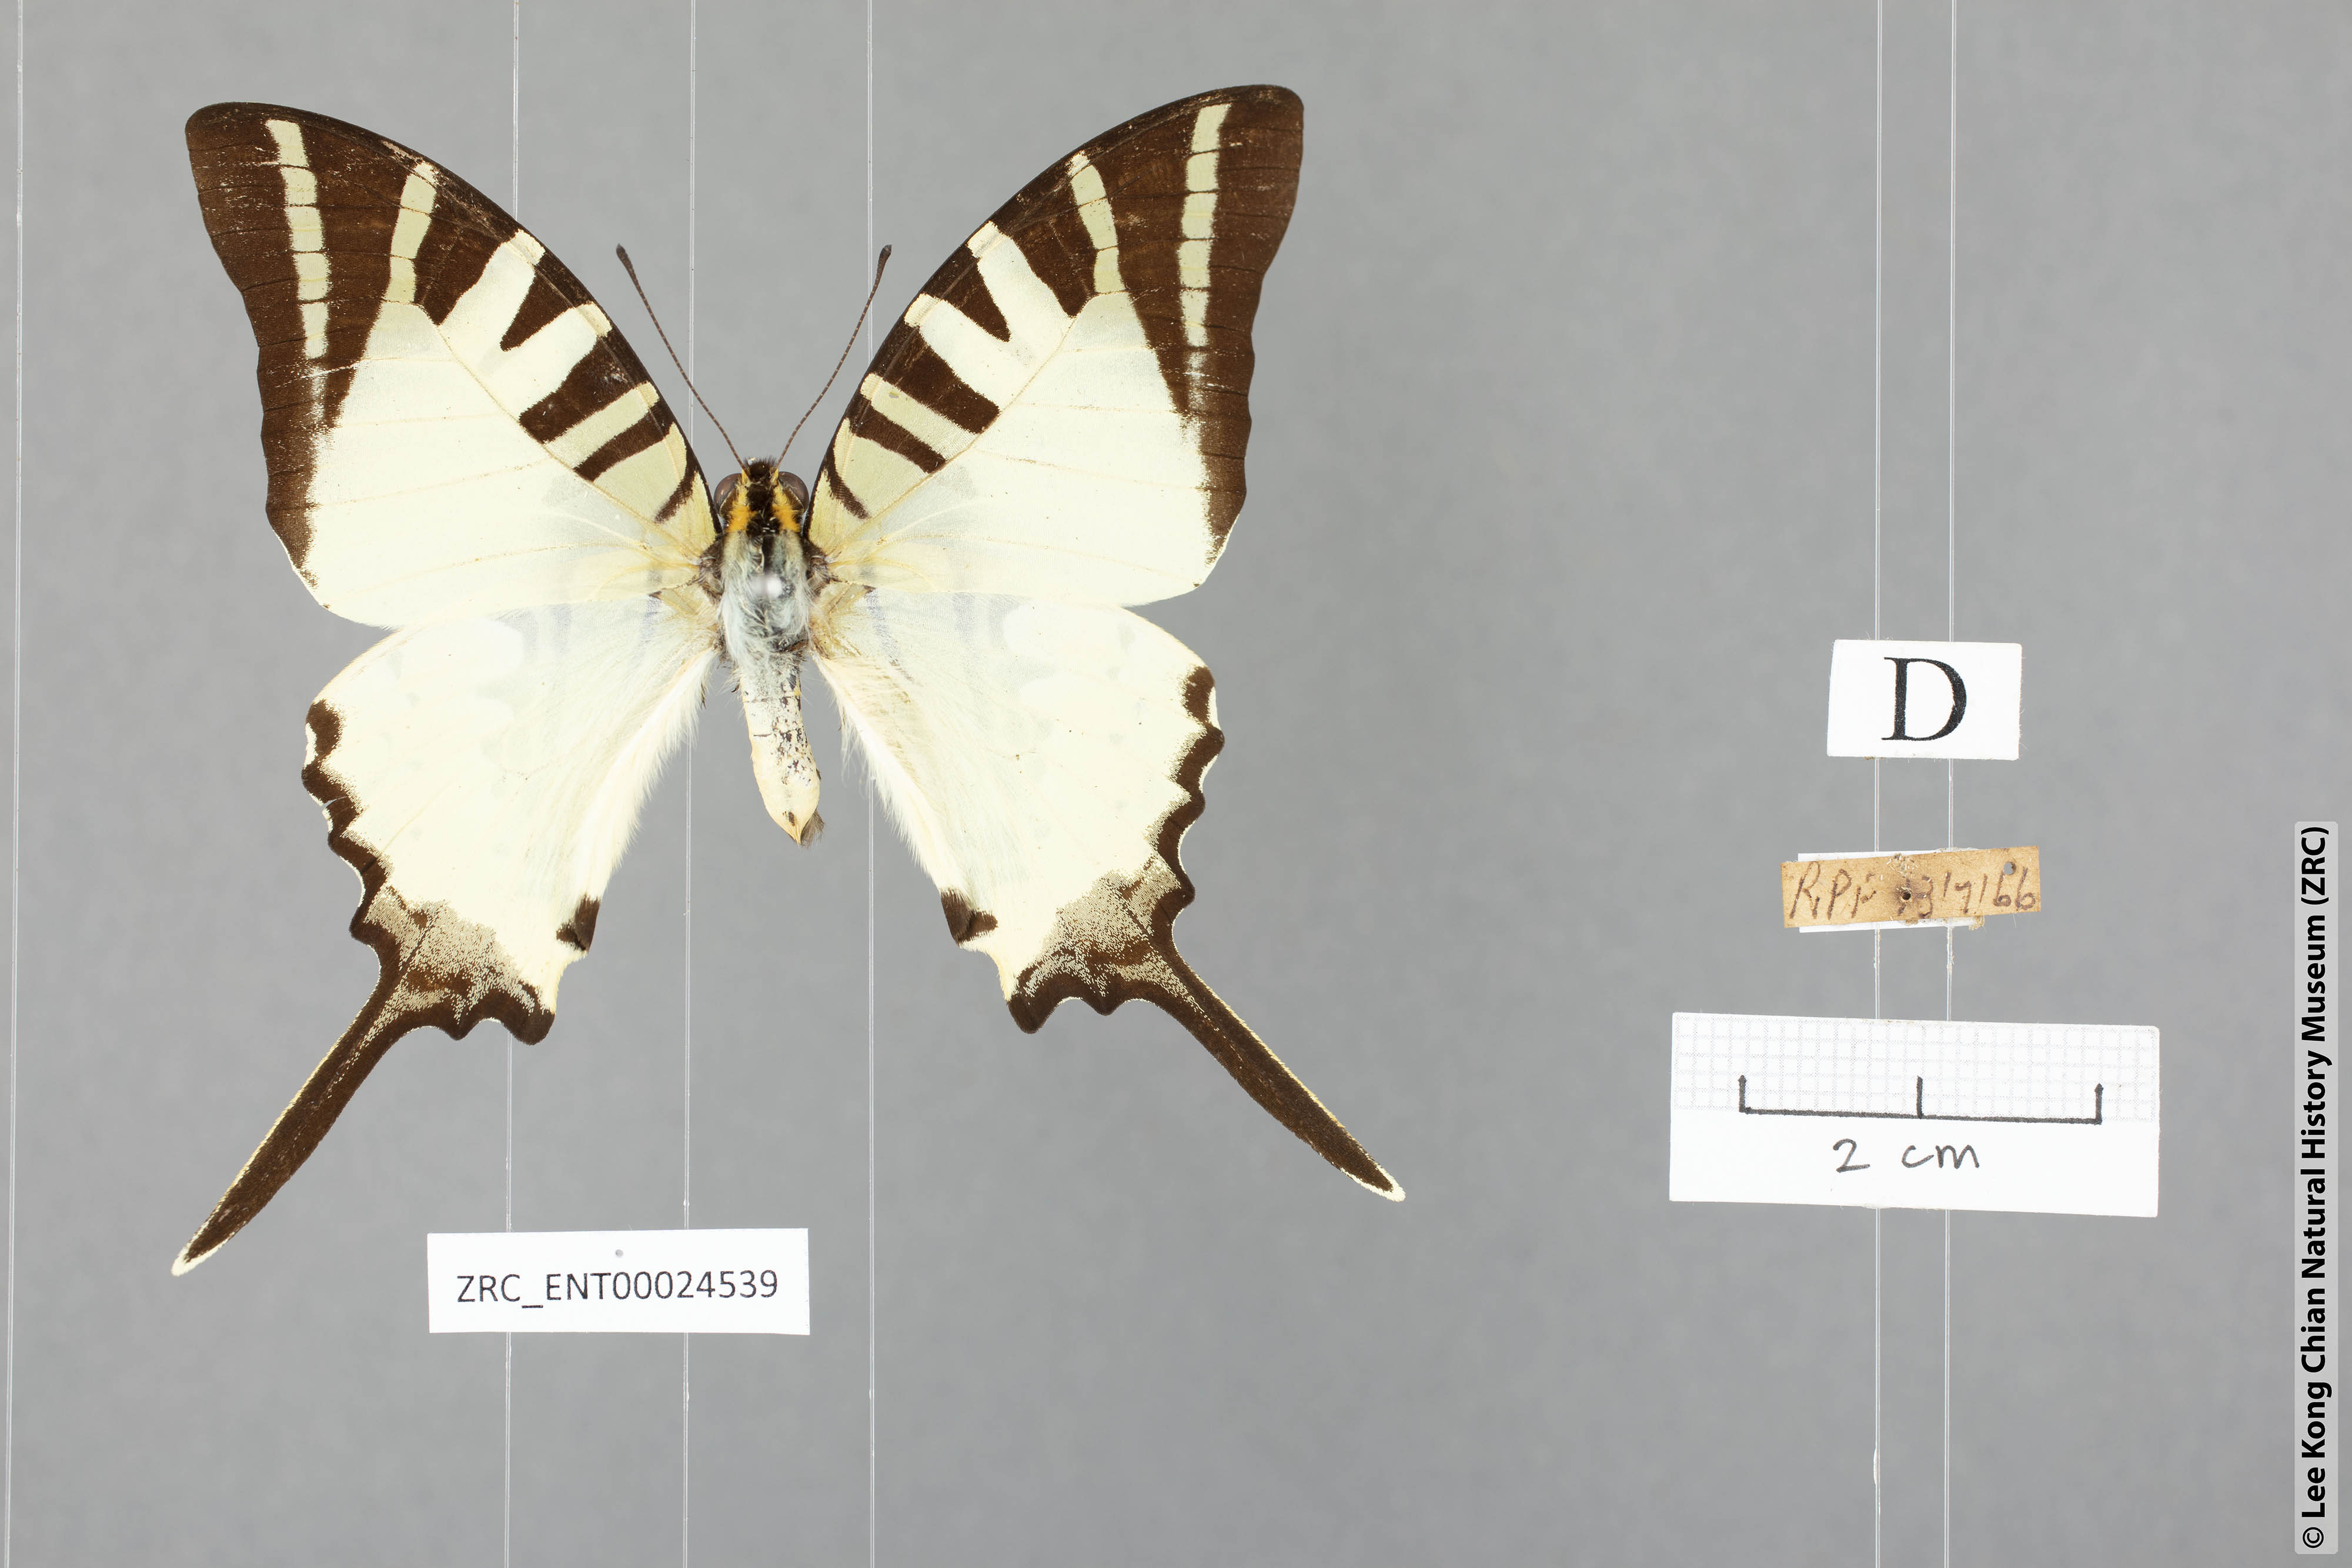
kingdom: Animalia
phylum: Arthropoda
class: Insecta
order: Lepidoptera
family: Papilionidae
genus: Graphium
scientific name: Graphium antiphates
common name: Fivebar swordtail
